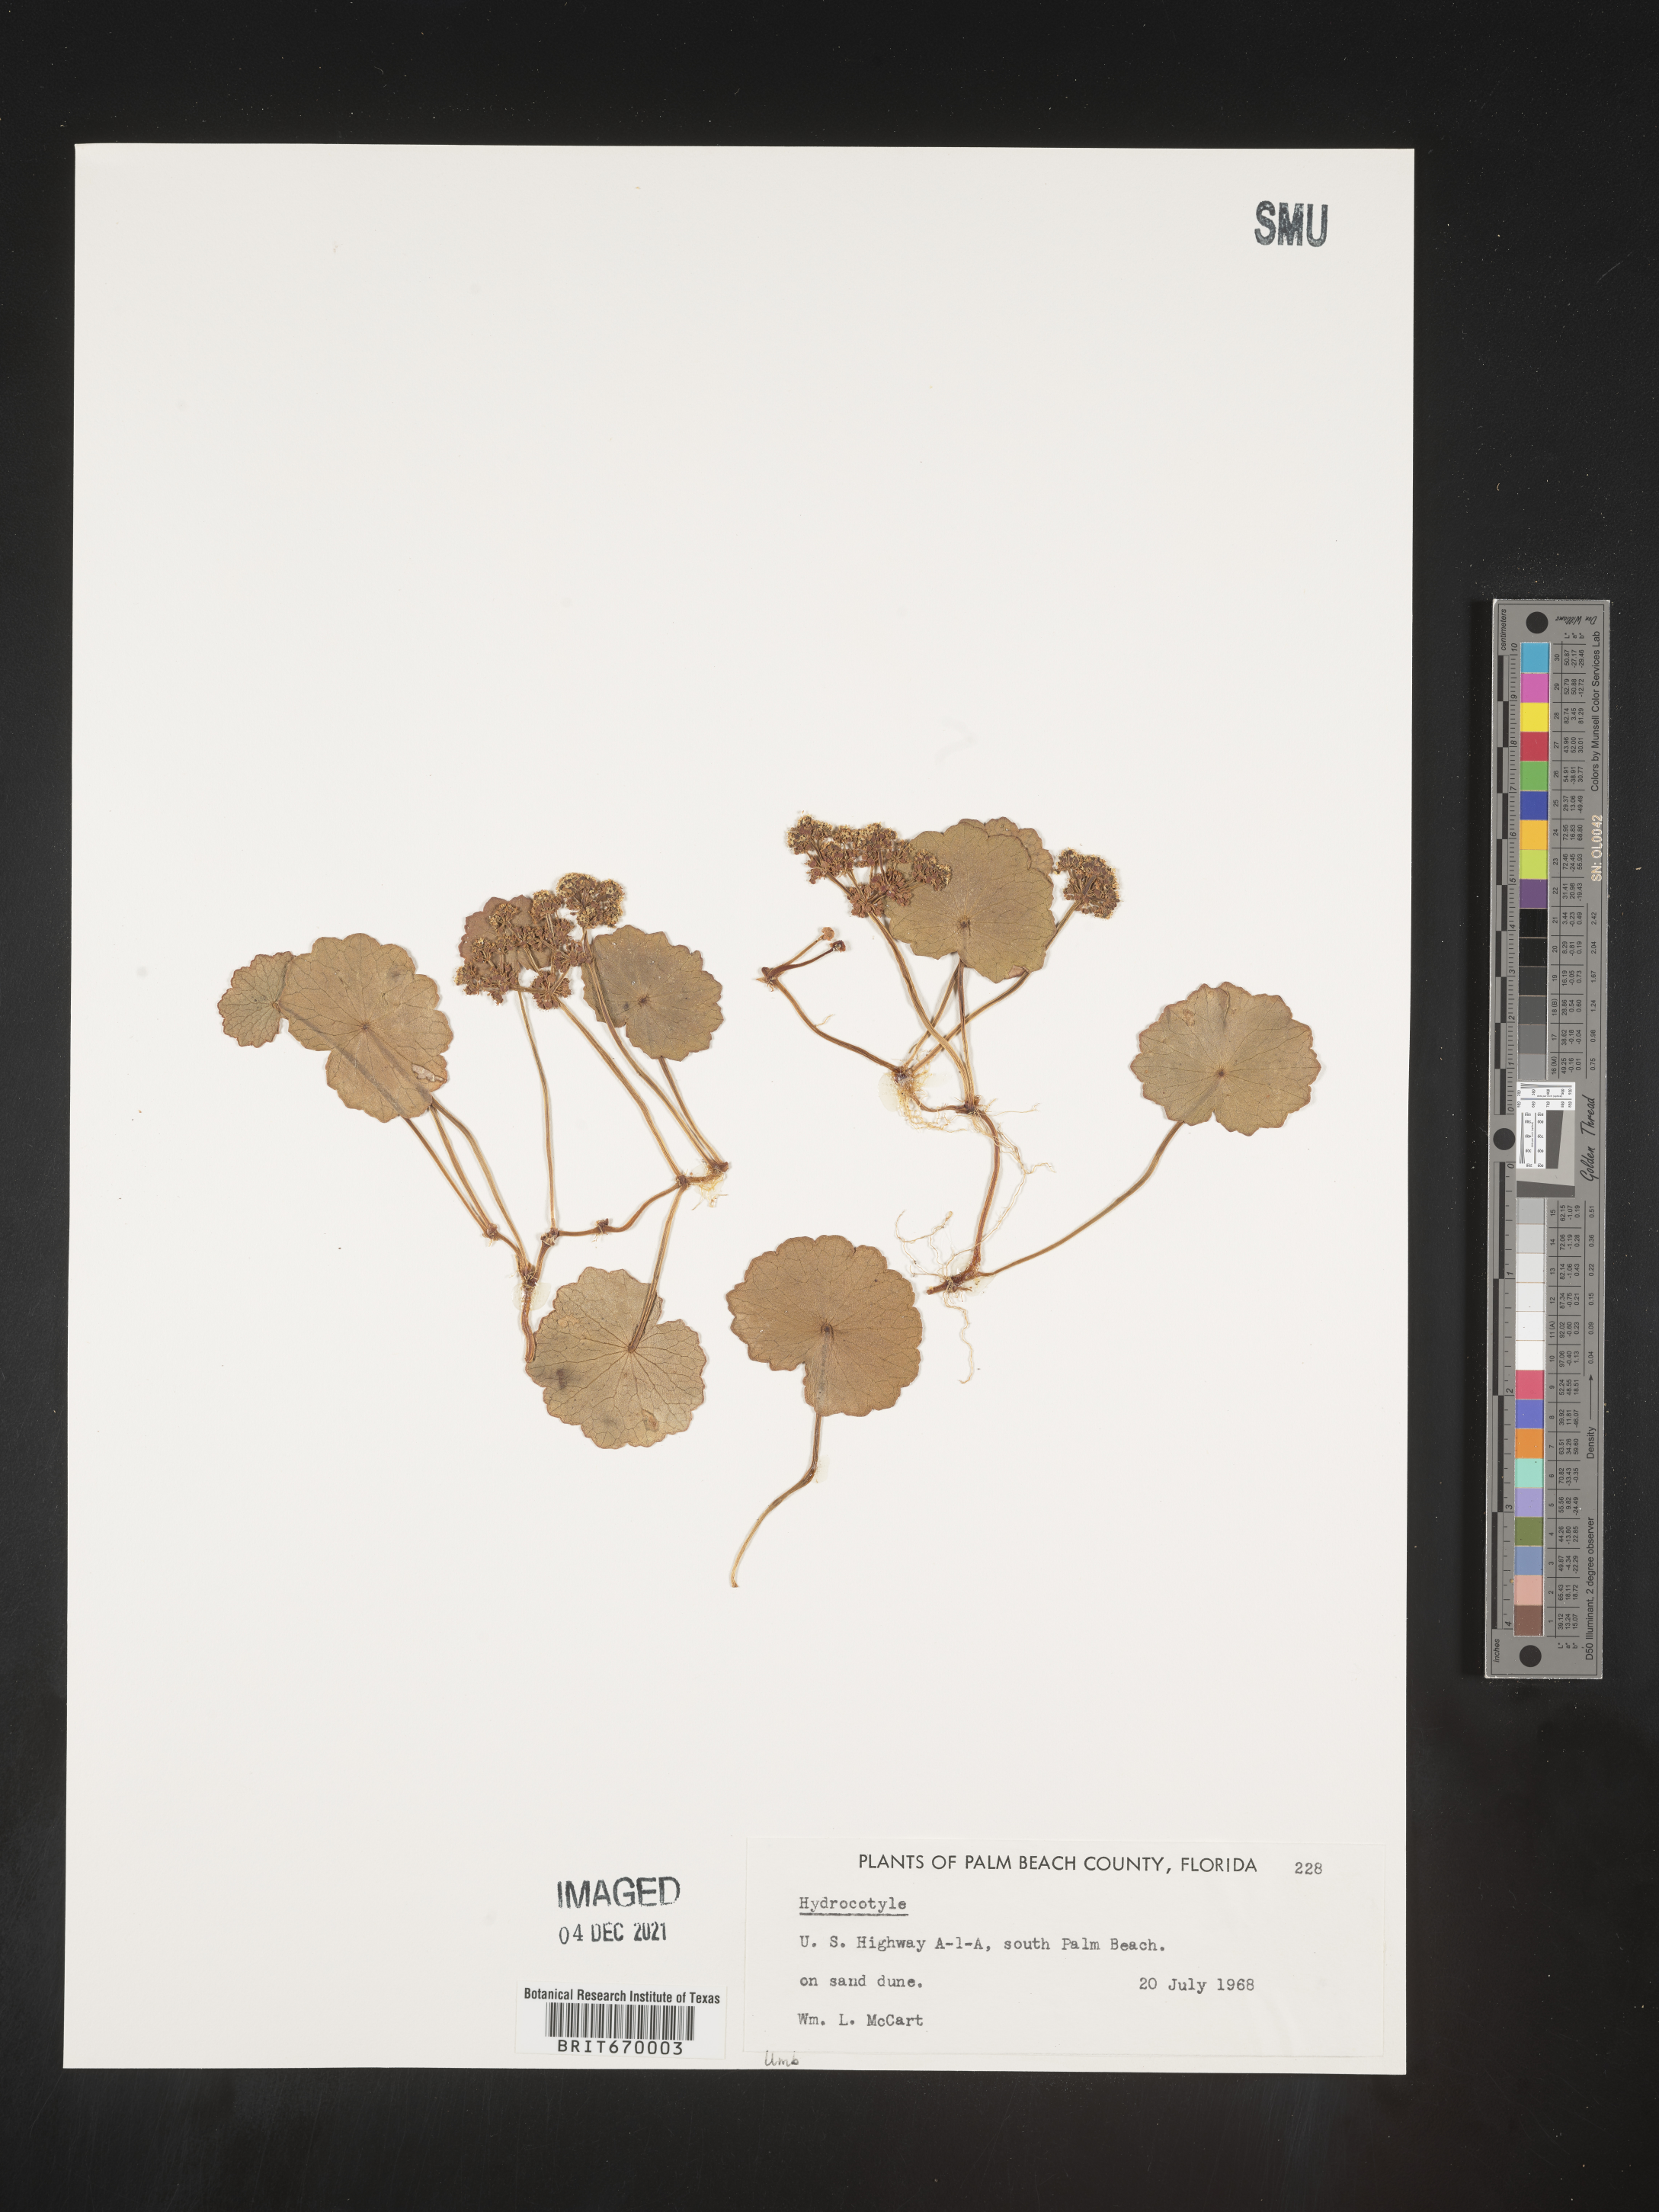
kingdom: Plantae
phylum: Tracheophyta
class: Magnoliopsida
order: Apiales
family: Araliaceae
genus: Hydrocotyle
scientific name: Hydrocotyle
